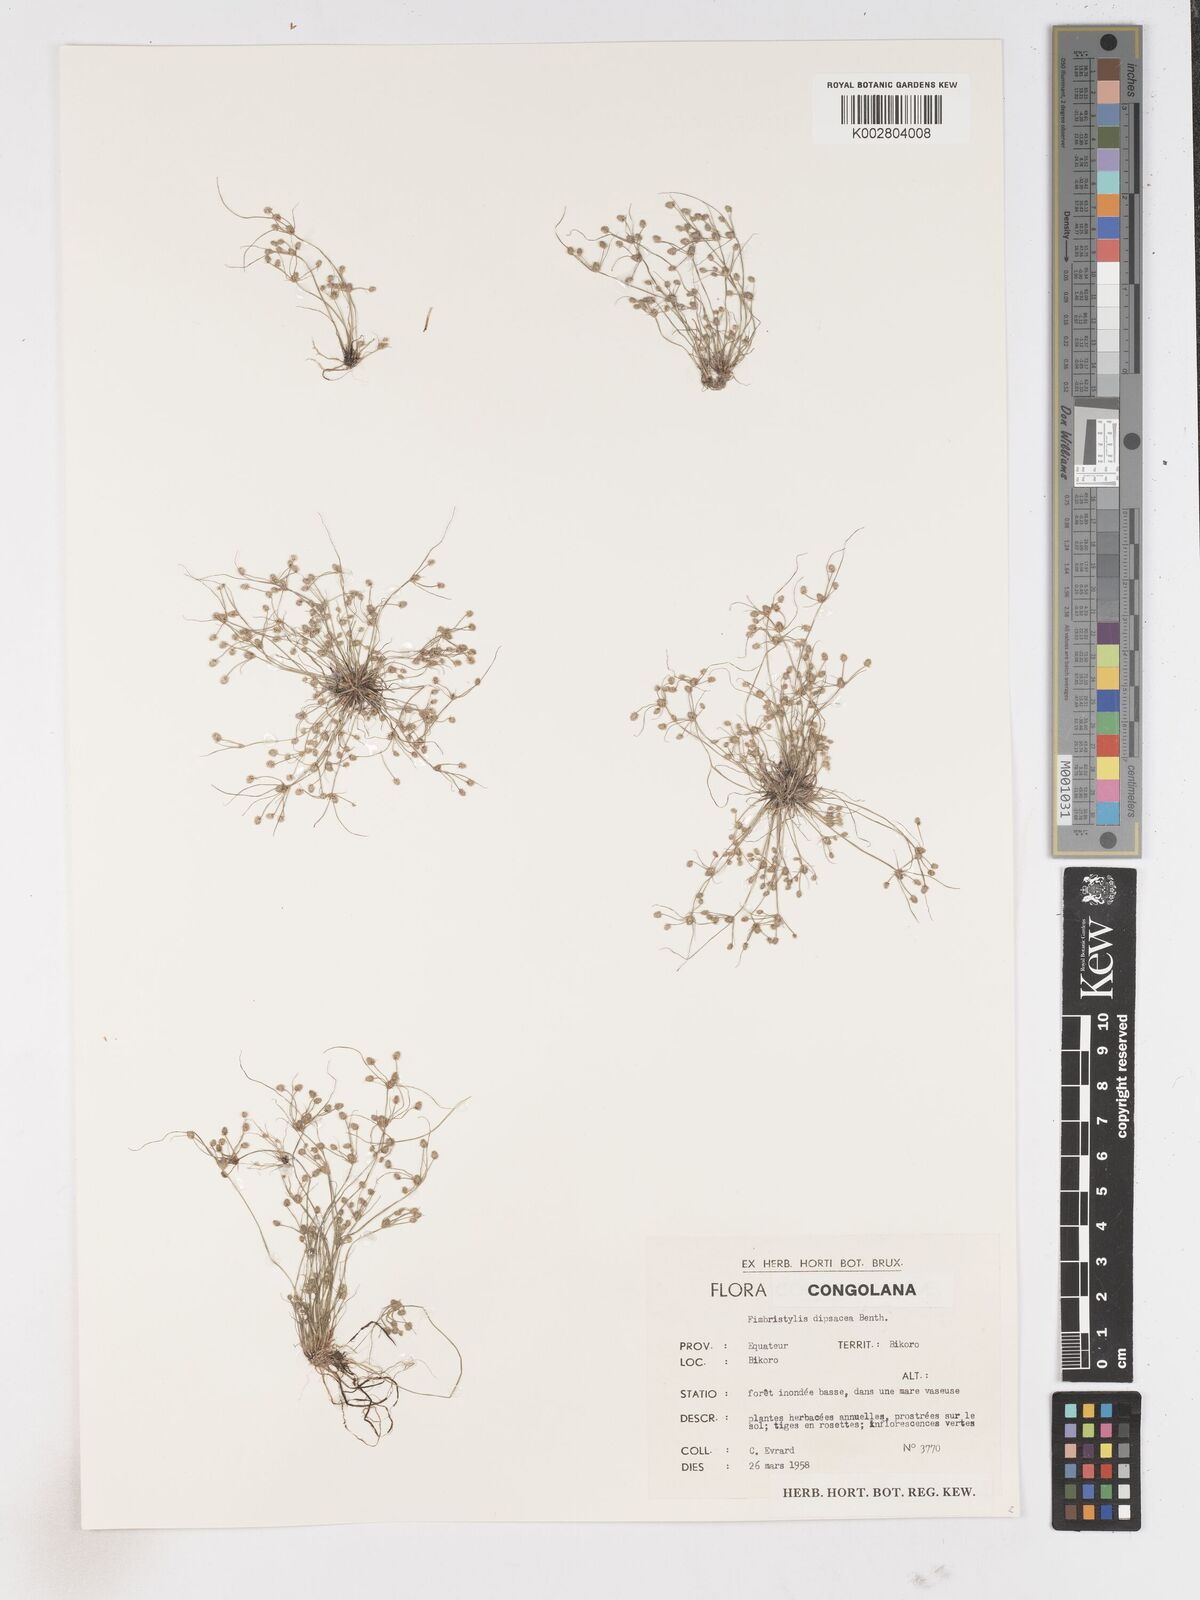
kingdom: Plantae
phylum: Tracheophyta
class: Liliopsida
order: Poales
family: Cyperaceae
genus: Fimbristylis
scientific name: Fimbristylis dipsacea
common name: Harper's fimbristylis
